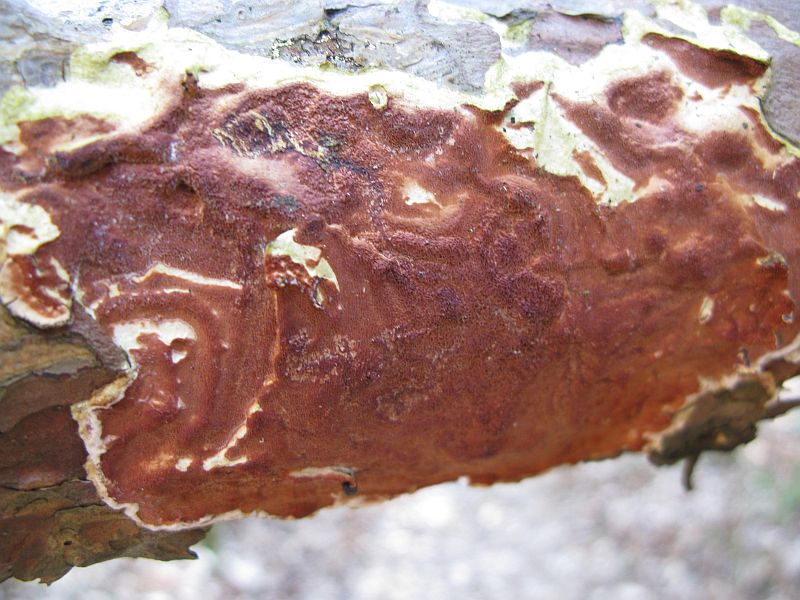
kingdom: Fungi
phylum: Basidiomycota
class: Agaricomycetes
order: Polyporales
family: Irpicaceae
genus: Meruliopsis
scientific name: Meruliopsis taxicola
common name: purpurbrun foldporesvamp
